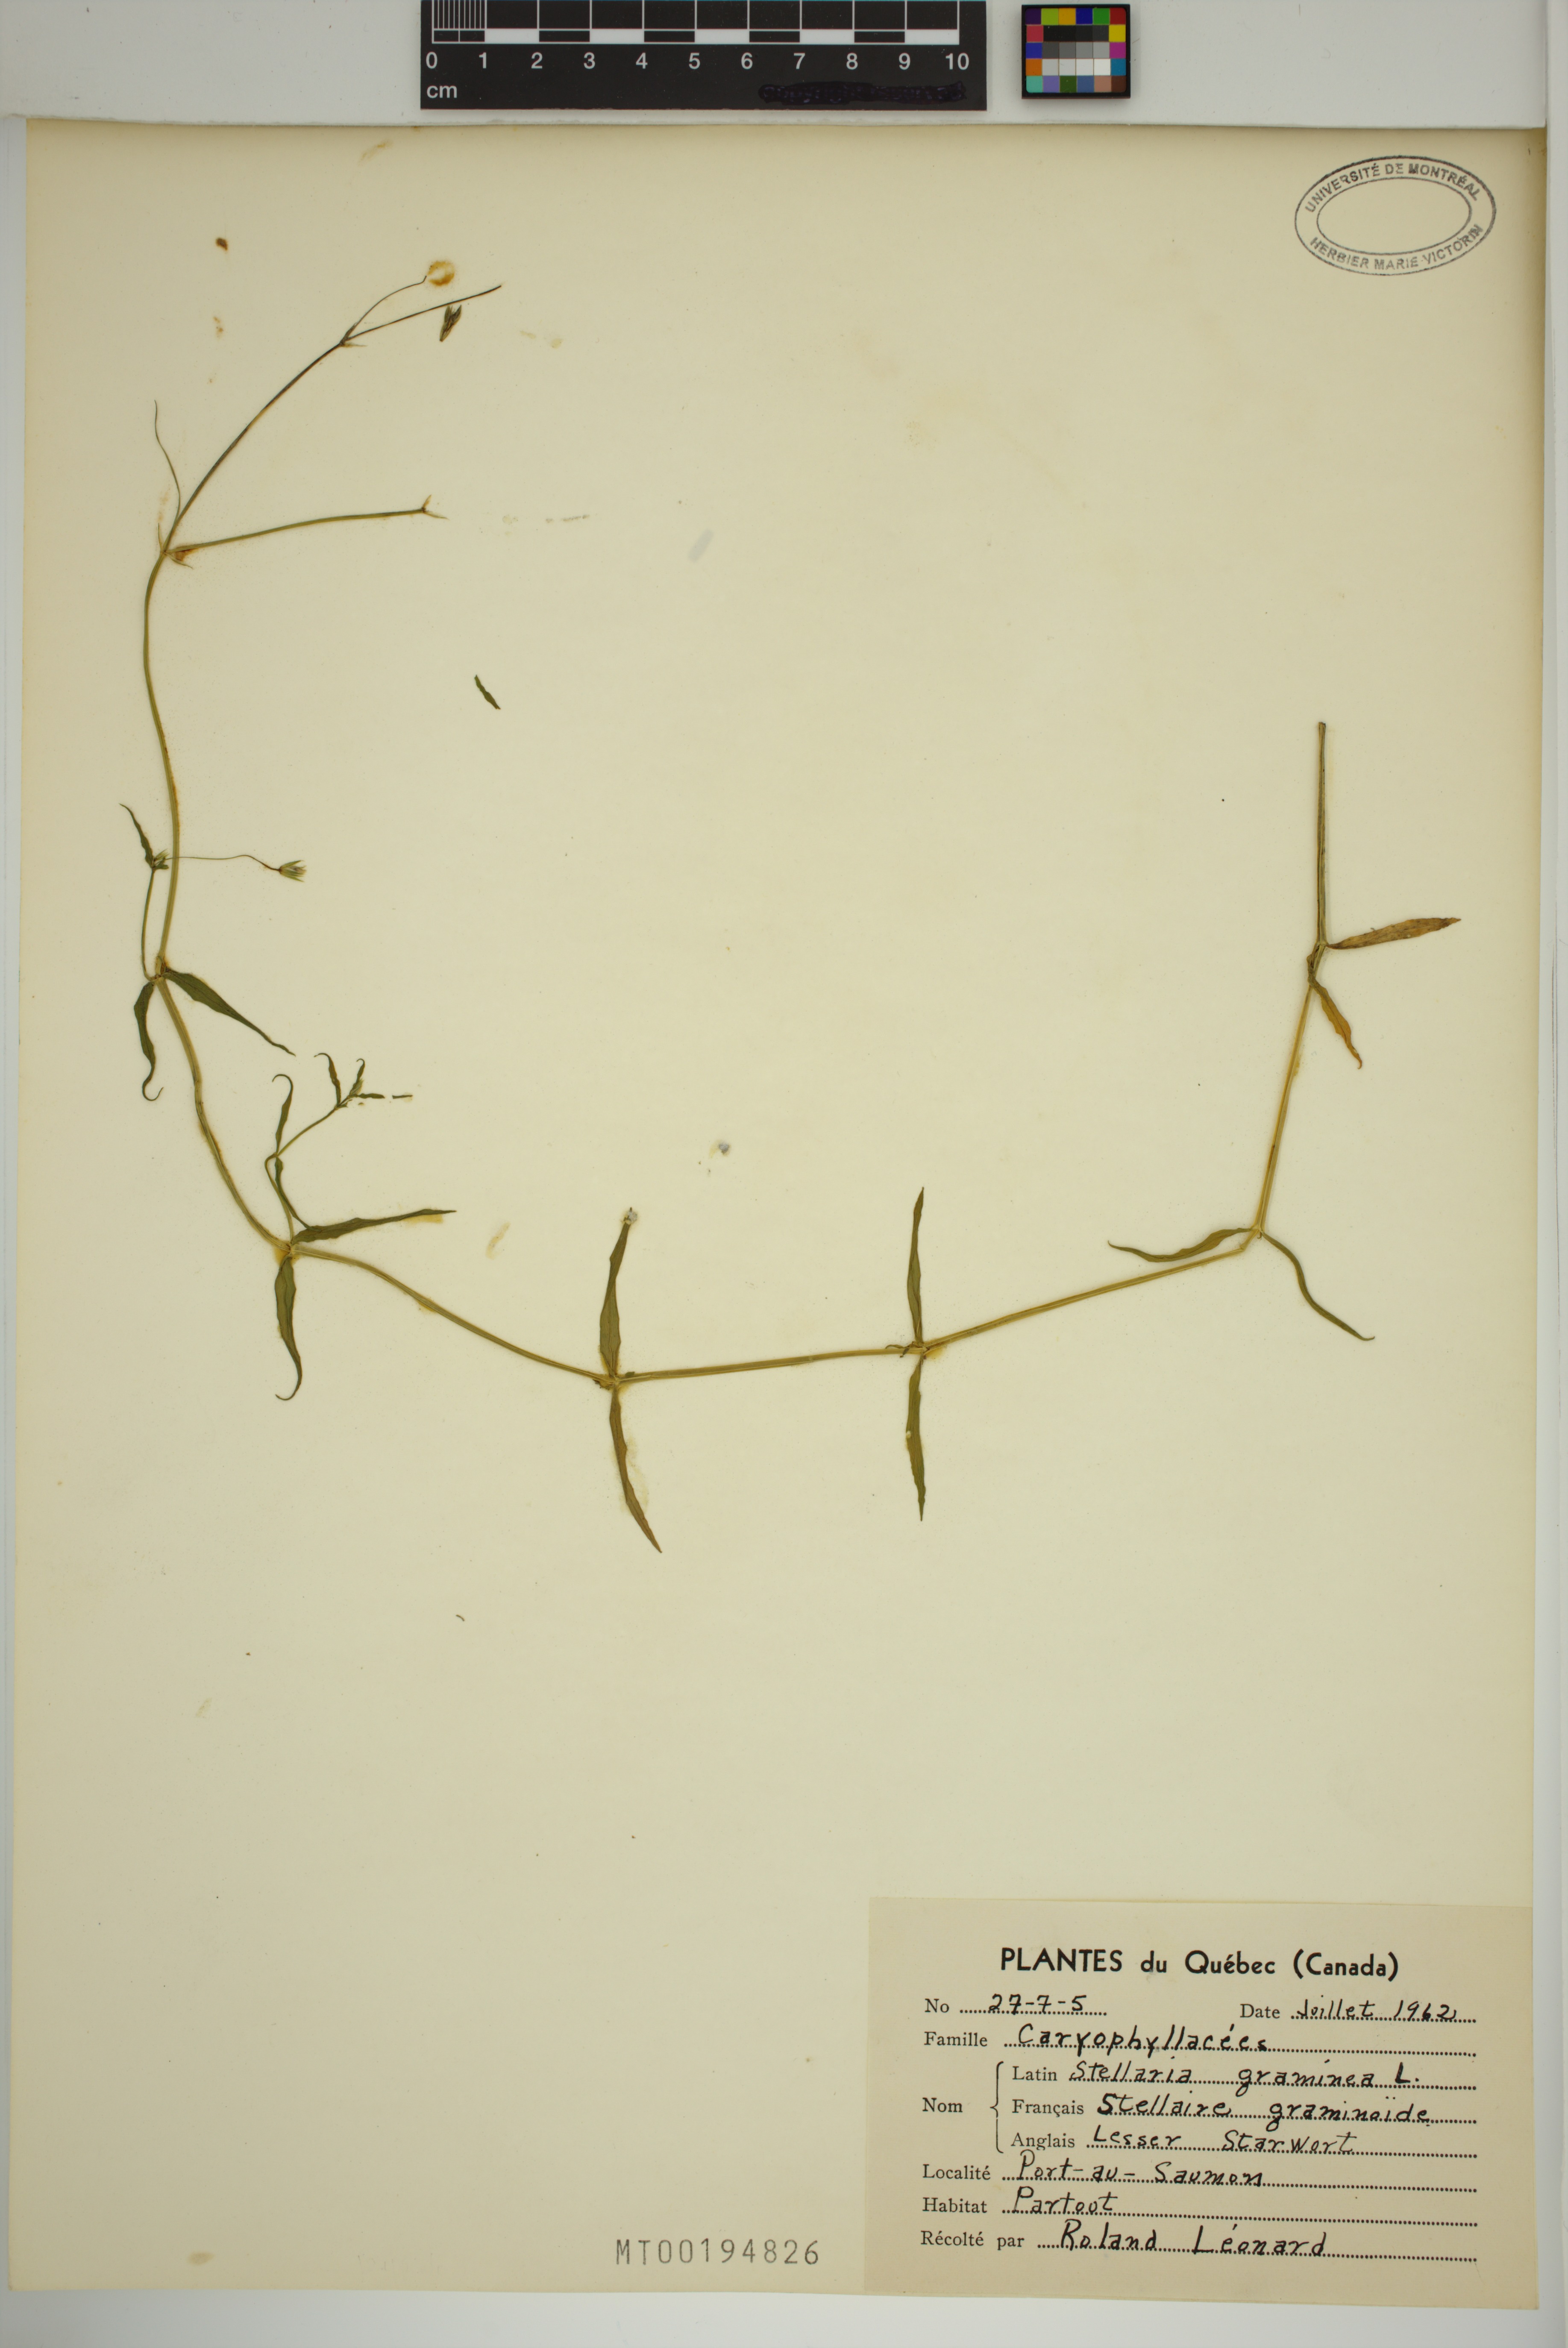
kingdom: Plantae
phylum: Tracheophyta
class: Magnoliopsida
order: Caryophyllales
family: Caryophyllaceae
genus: Stellaria
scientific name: Stellaria graminea
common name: Grass-like starwort
